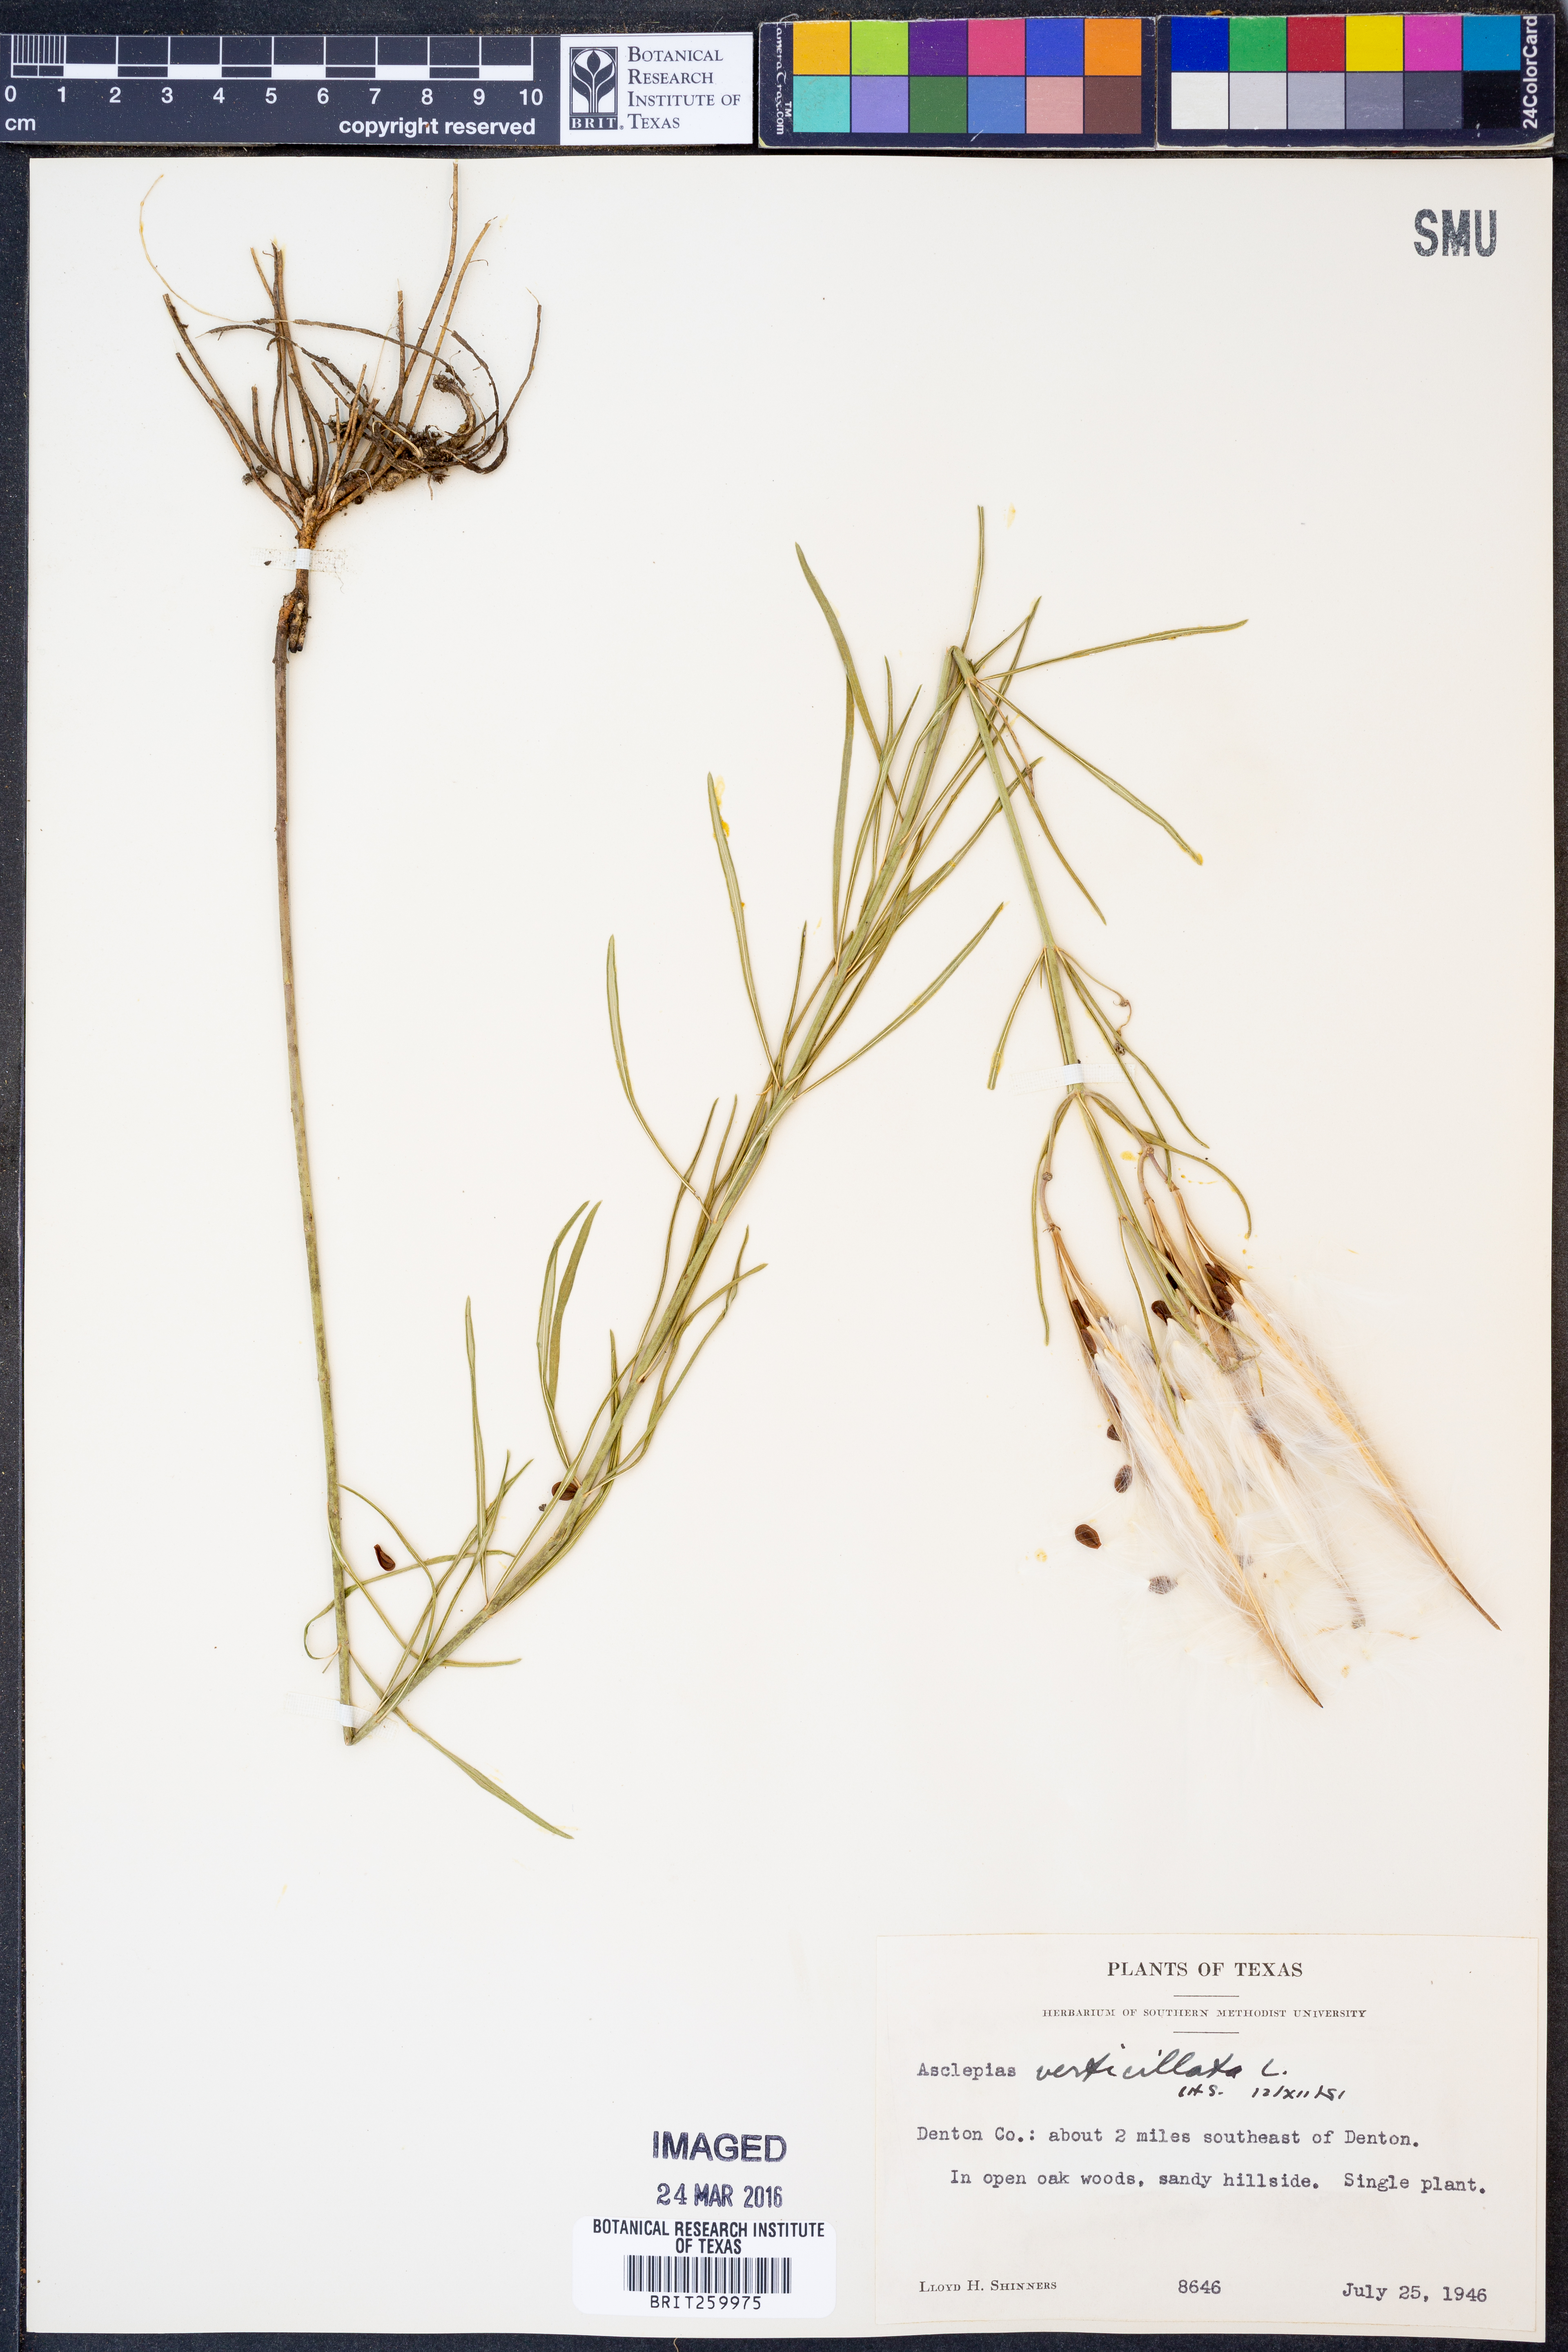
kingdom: Plantae
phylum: Tracheophyta
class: Magnoliopsida
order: Gentianales
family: Apocynaceae
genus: Asclepias
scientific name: Asclepias verticillata
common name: Eastern whorled milkweed
